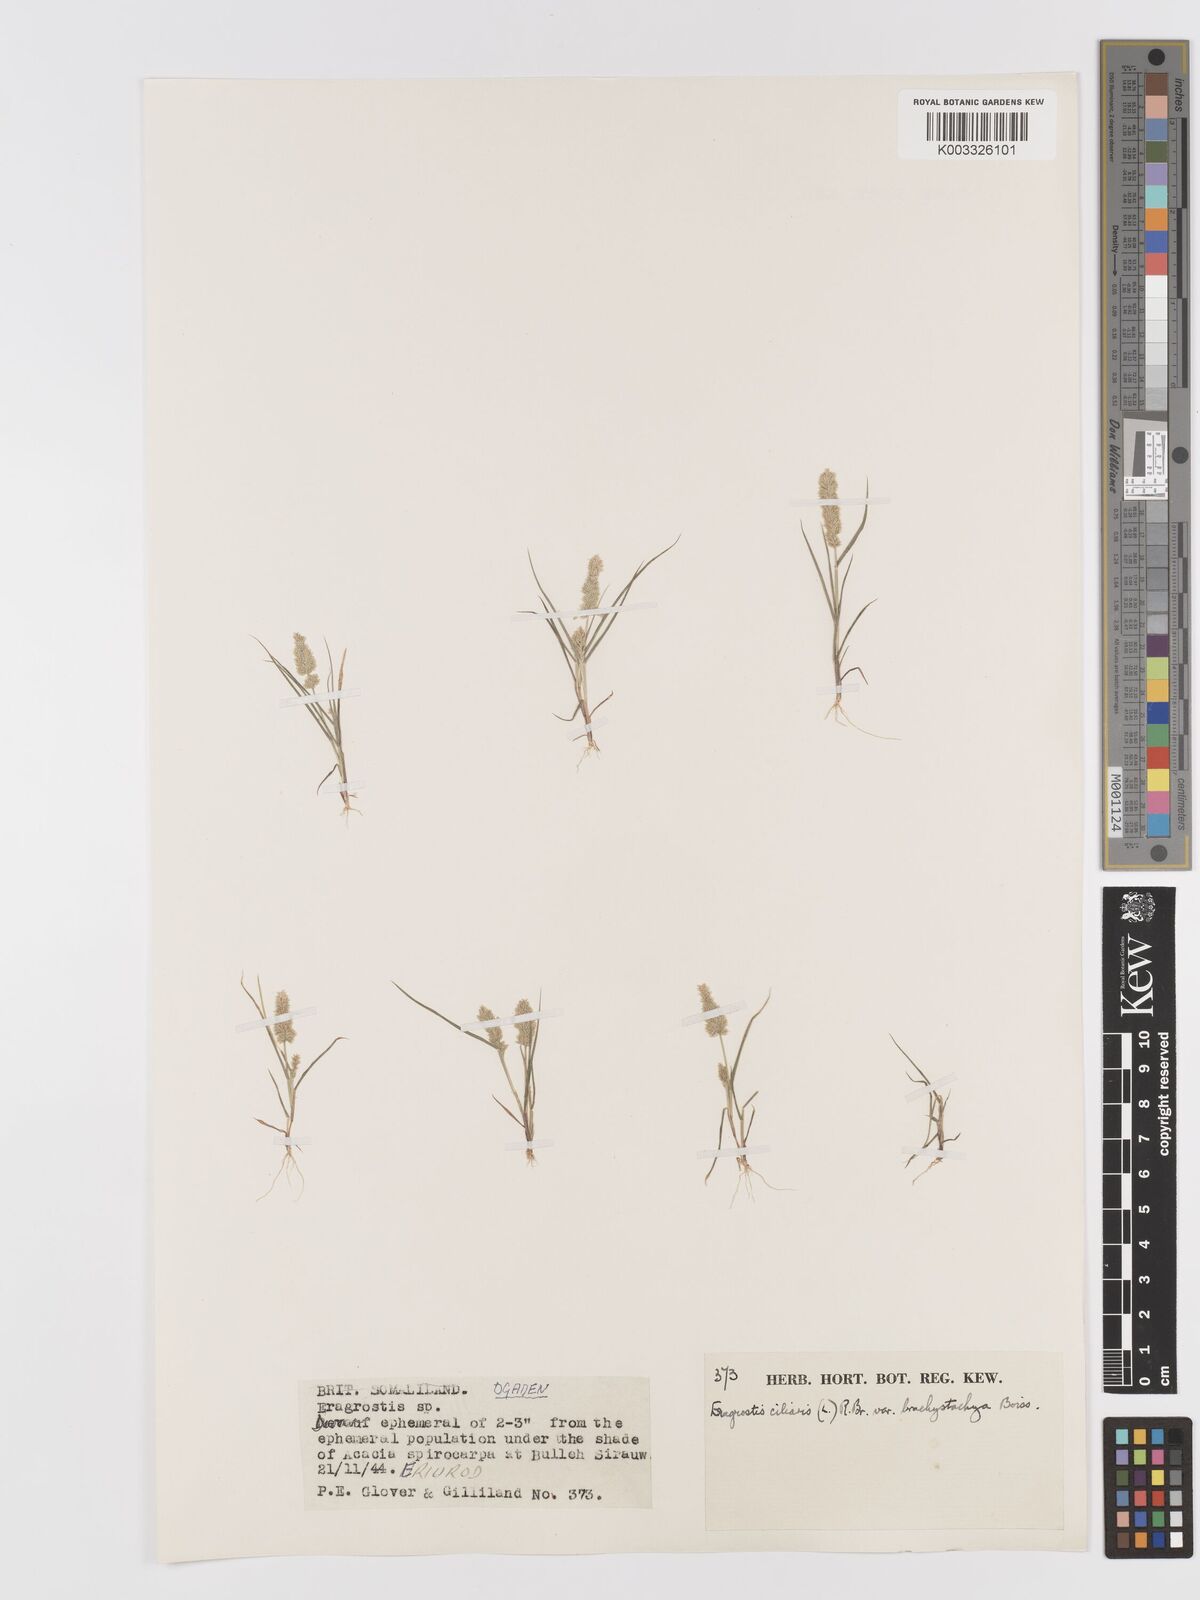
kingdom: Plantae
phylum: Tracheophyta
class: Liliopsida
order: Poales
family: Poaceae
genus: Eragrostis
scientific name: Eragrostis ciliaris
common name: Gophertail lovegrass
